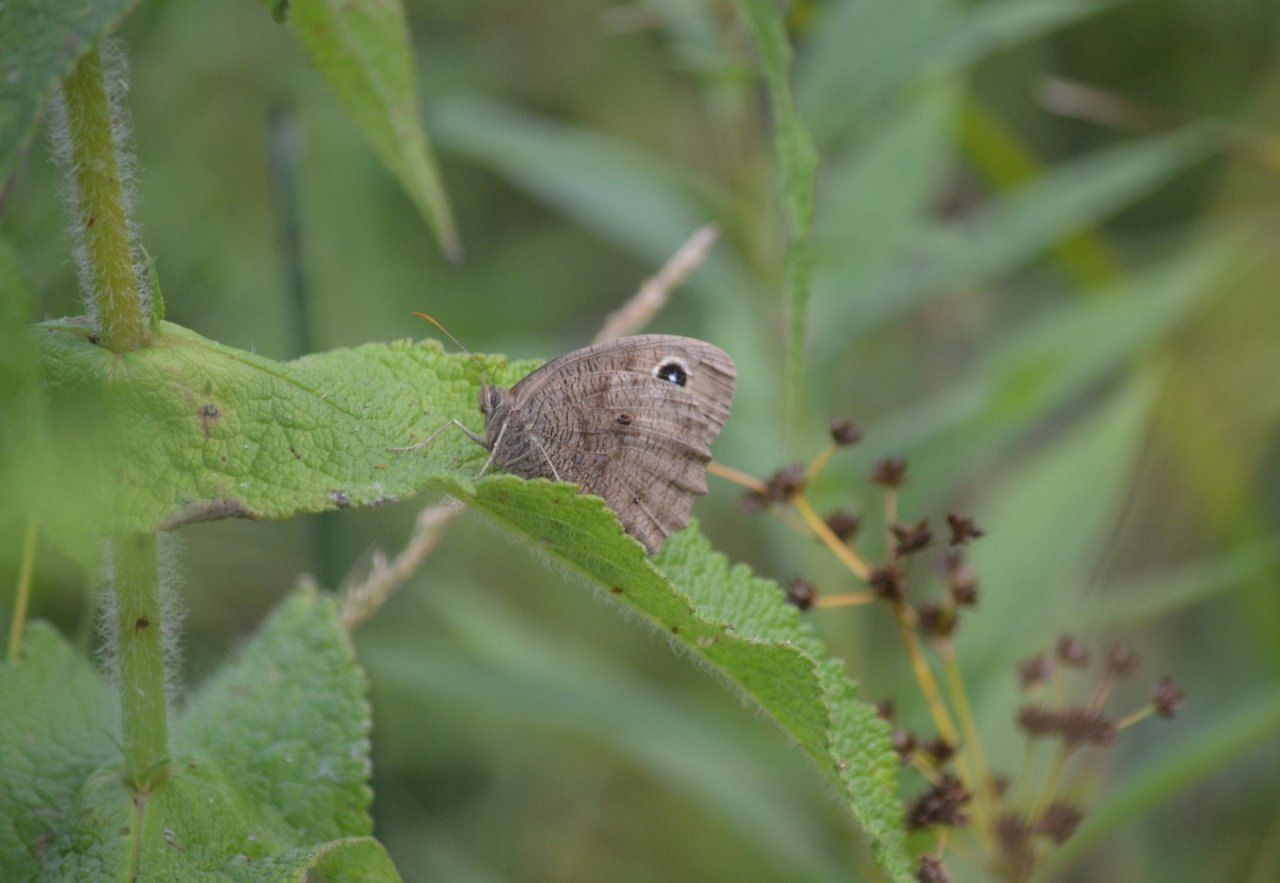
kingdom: Animalia
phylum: Arthropoda
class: Insecta
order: Lepidoptera
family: Nymphalidae
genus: Cercyonis
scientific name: Cercyonis pegala
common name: Common Wood-Nymph
